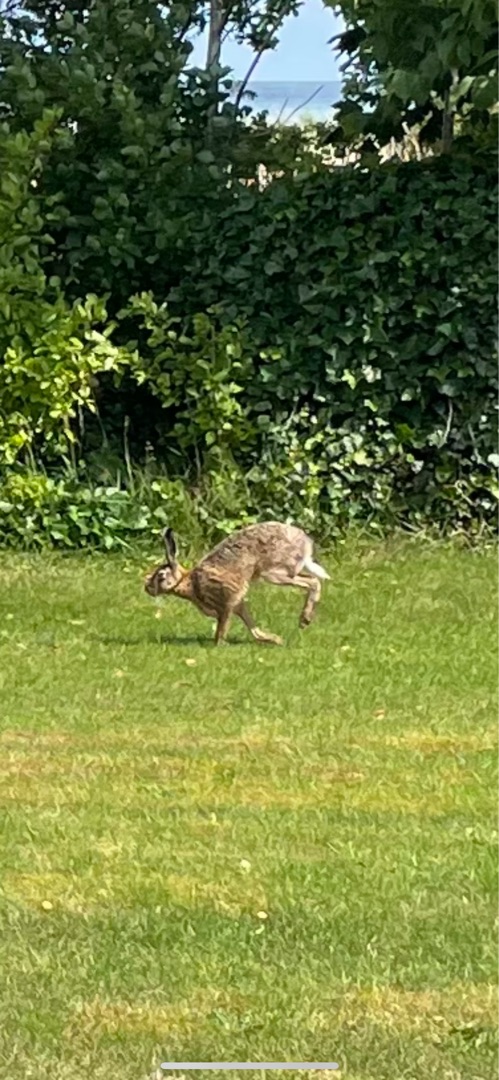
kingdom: Animalia
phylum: Chordata
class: Mammalia
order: Lagomorpha
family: Leporidae
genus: Lepus
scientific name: Lepus europaeus
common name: Hare
